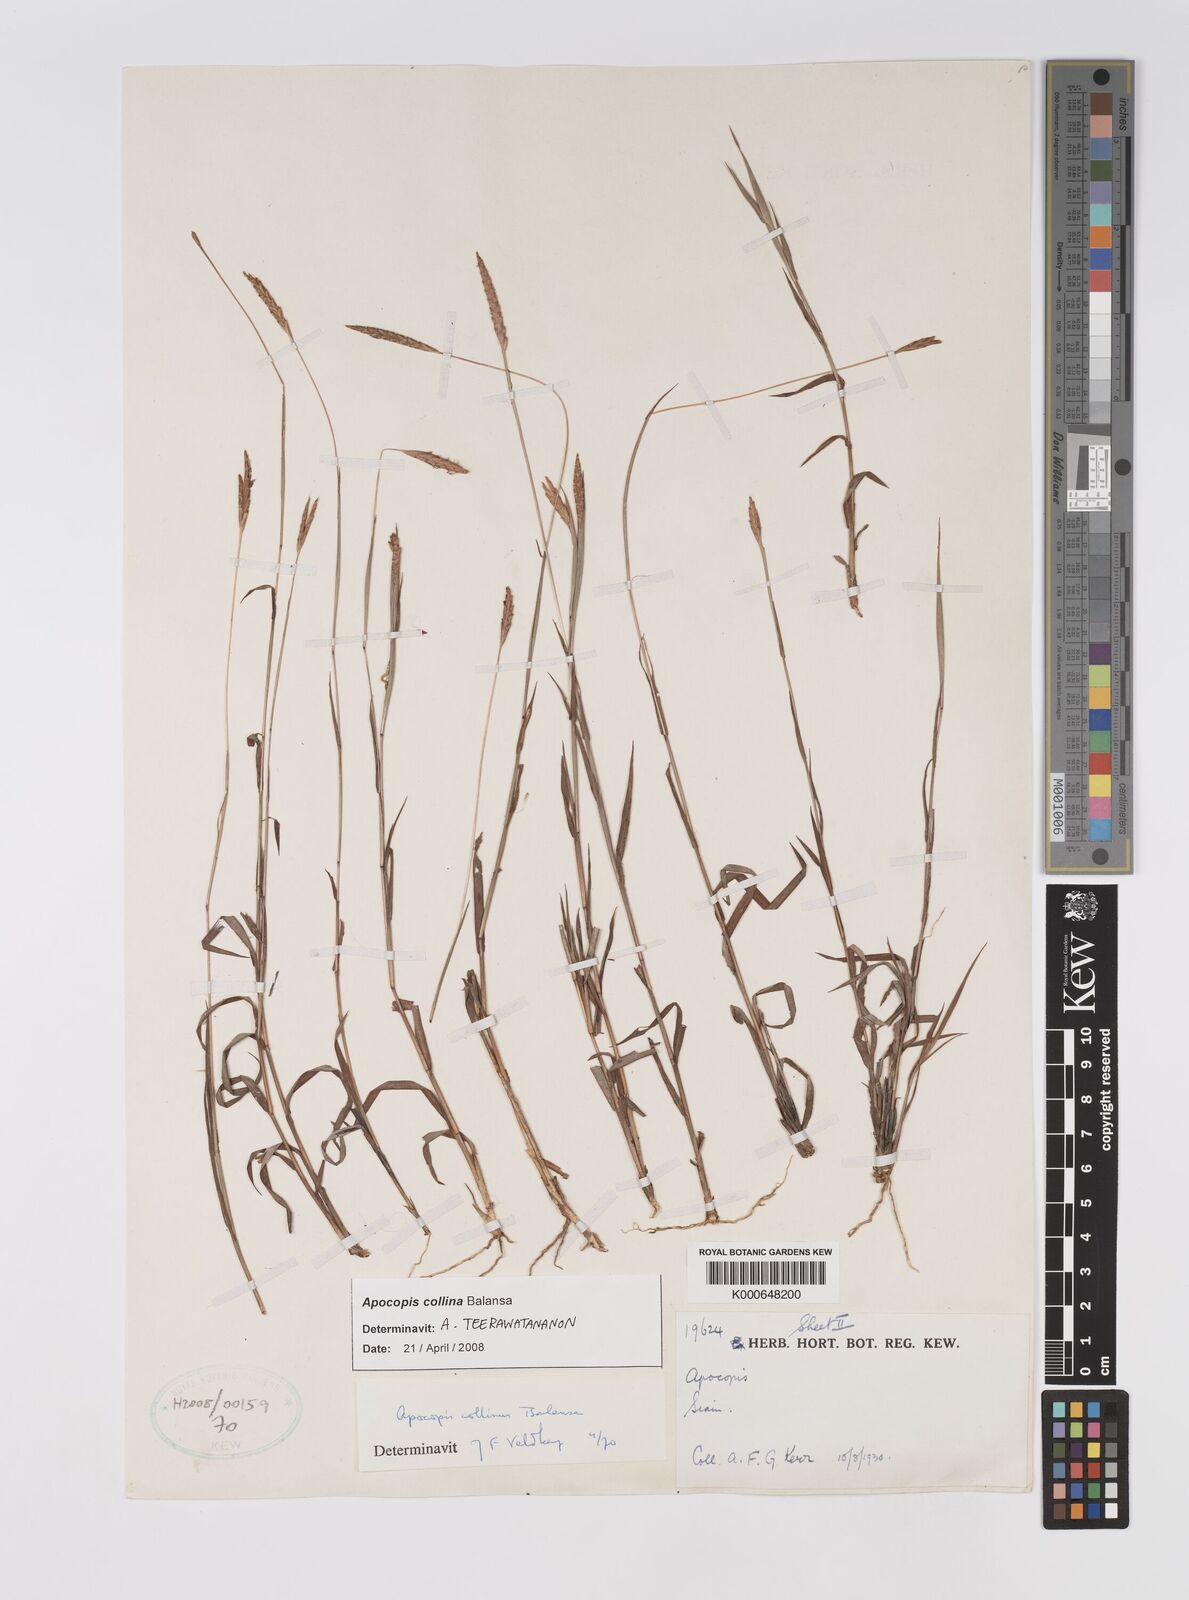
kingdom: Plantae
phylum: Tracheophyta
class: Liliopsida
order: Poales
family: Poaceae
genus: Apocopis
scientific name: Apocopis collinus
